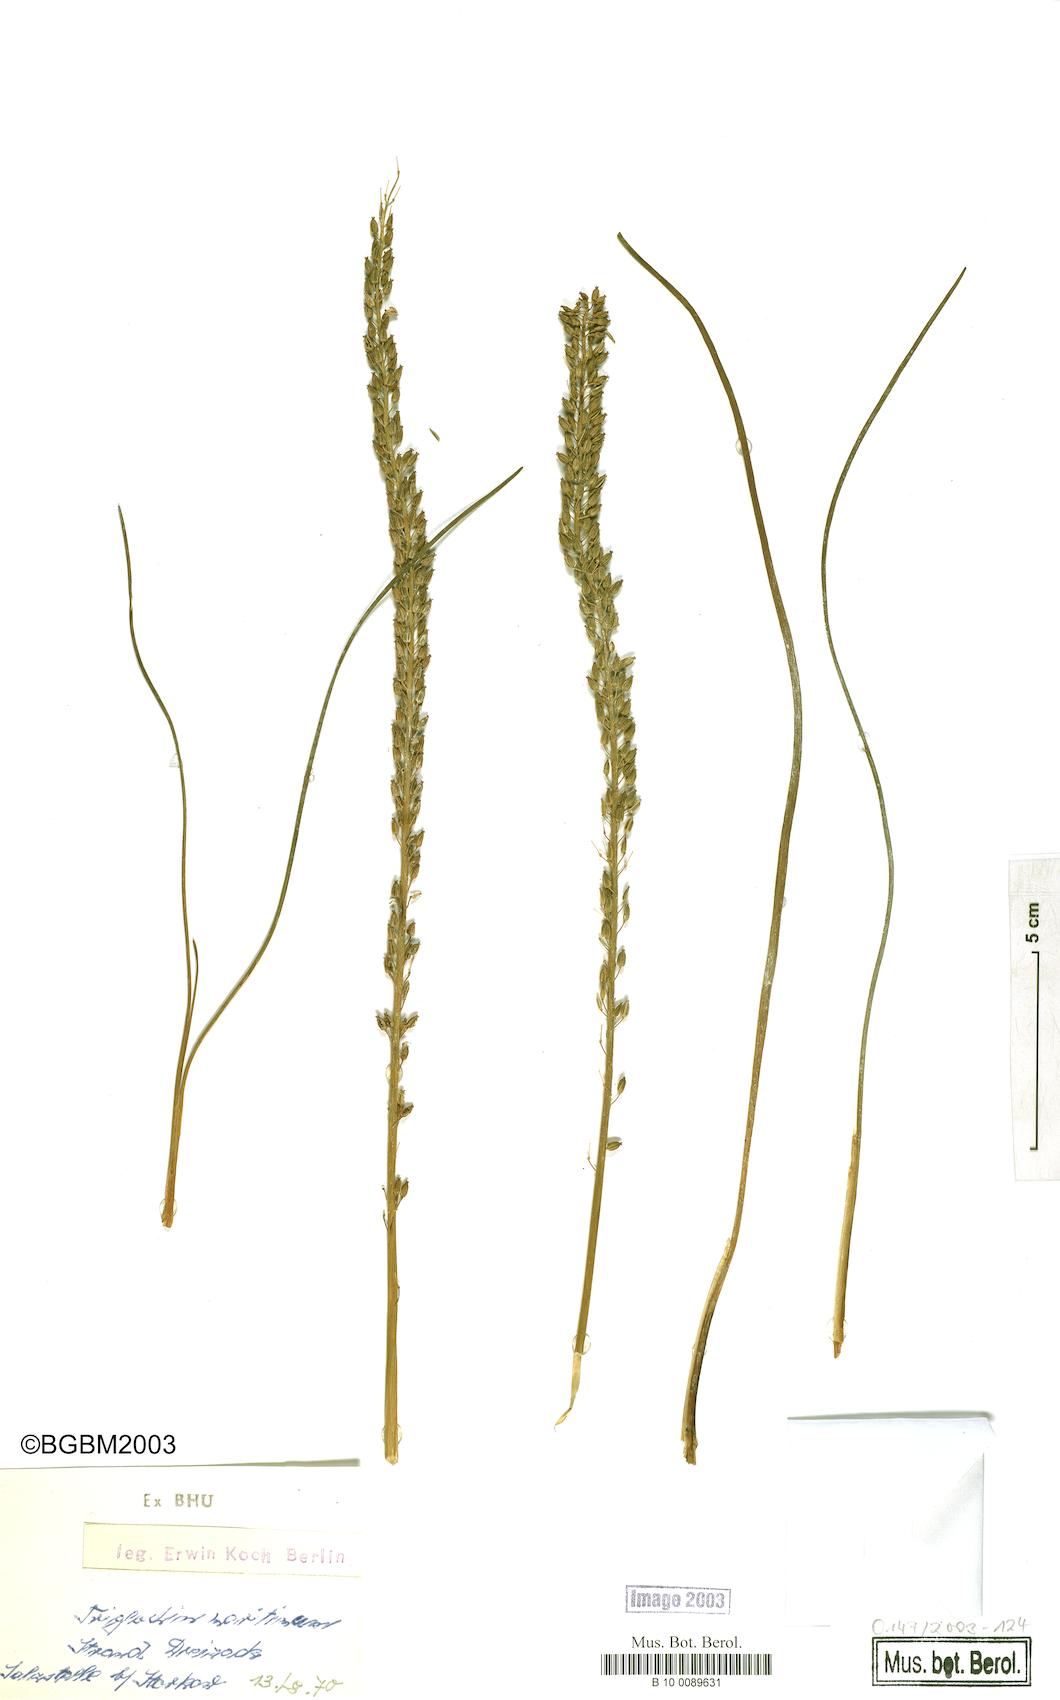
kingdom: Plantae
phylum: Tracheophyta
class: Liliopsida
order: Alismatales
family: Juncaginaceae
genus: Triglochin
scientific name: Triglochin maritima
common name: Sea arrowgrass
